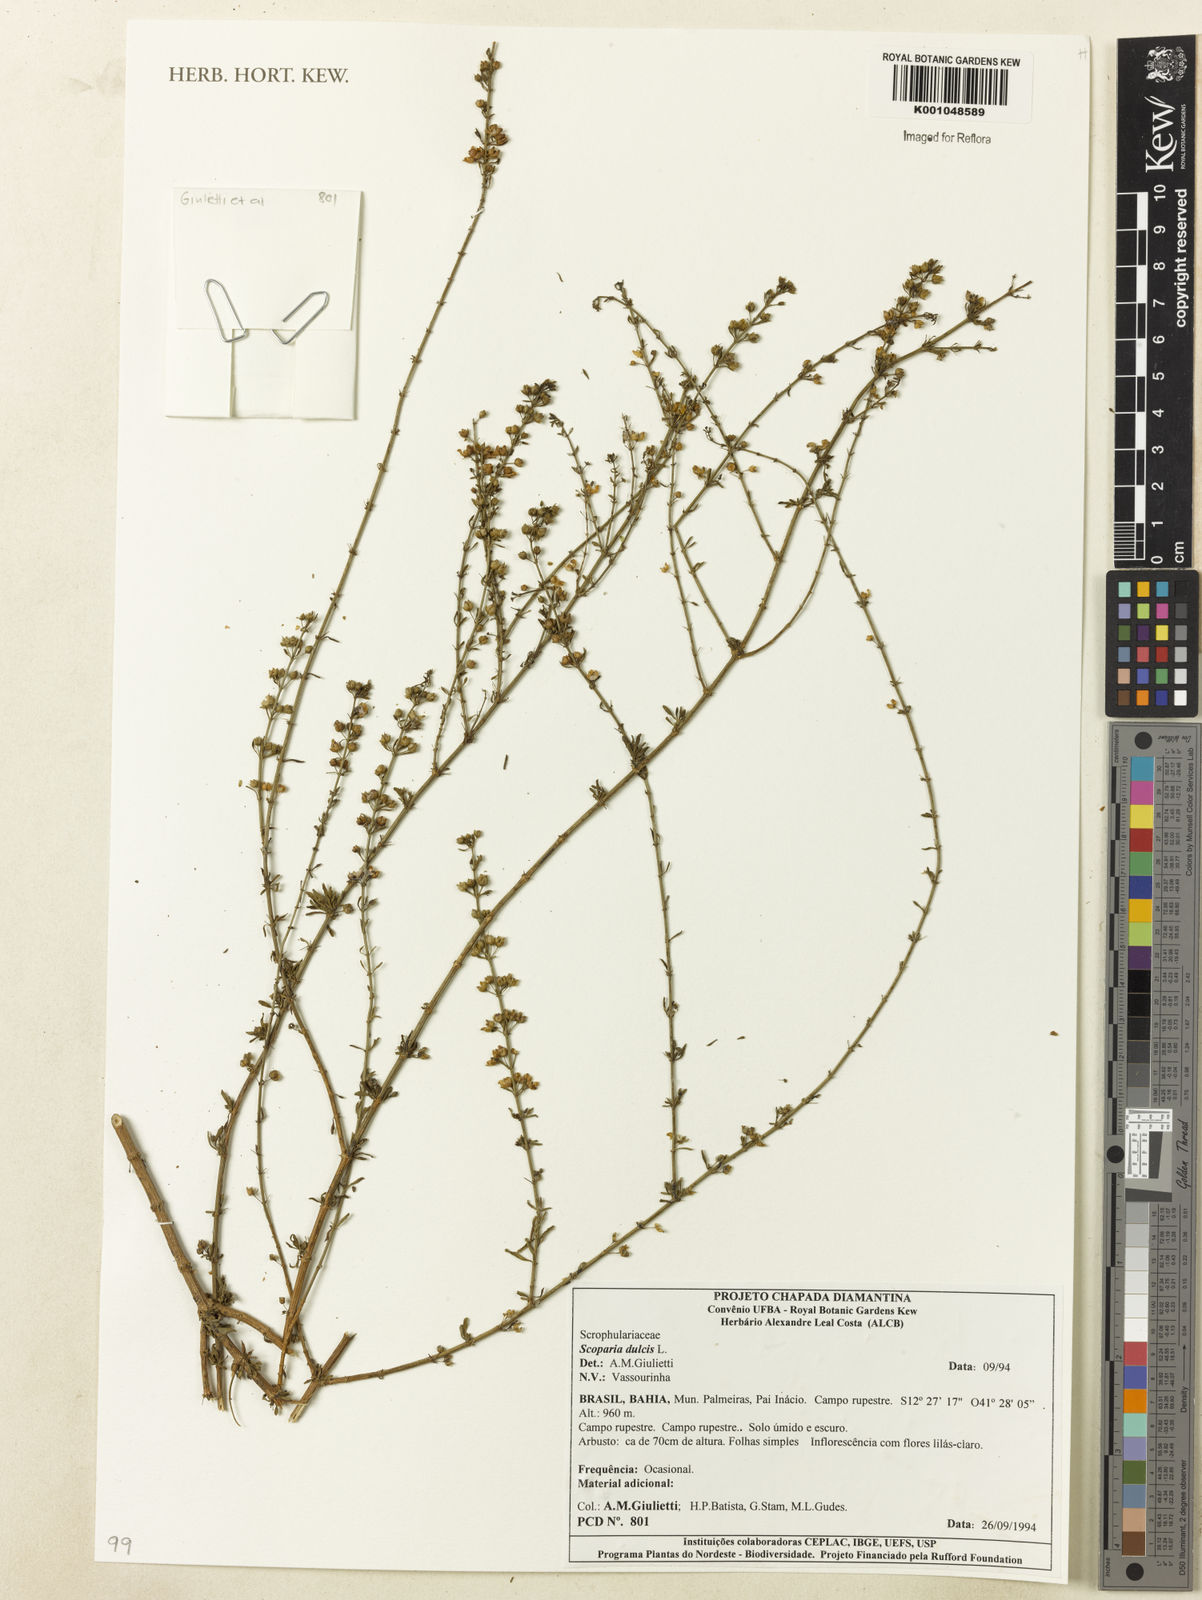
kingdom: Plantae
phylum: Tracheophyta
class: Magnoliopsida
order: Lamiales
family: Plantaginaceae
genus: Scoparia
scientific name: Scoparia dulcis
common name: Scoparia-weed
